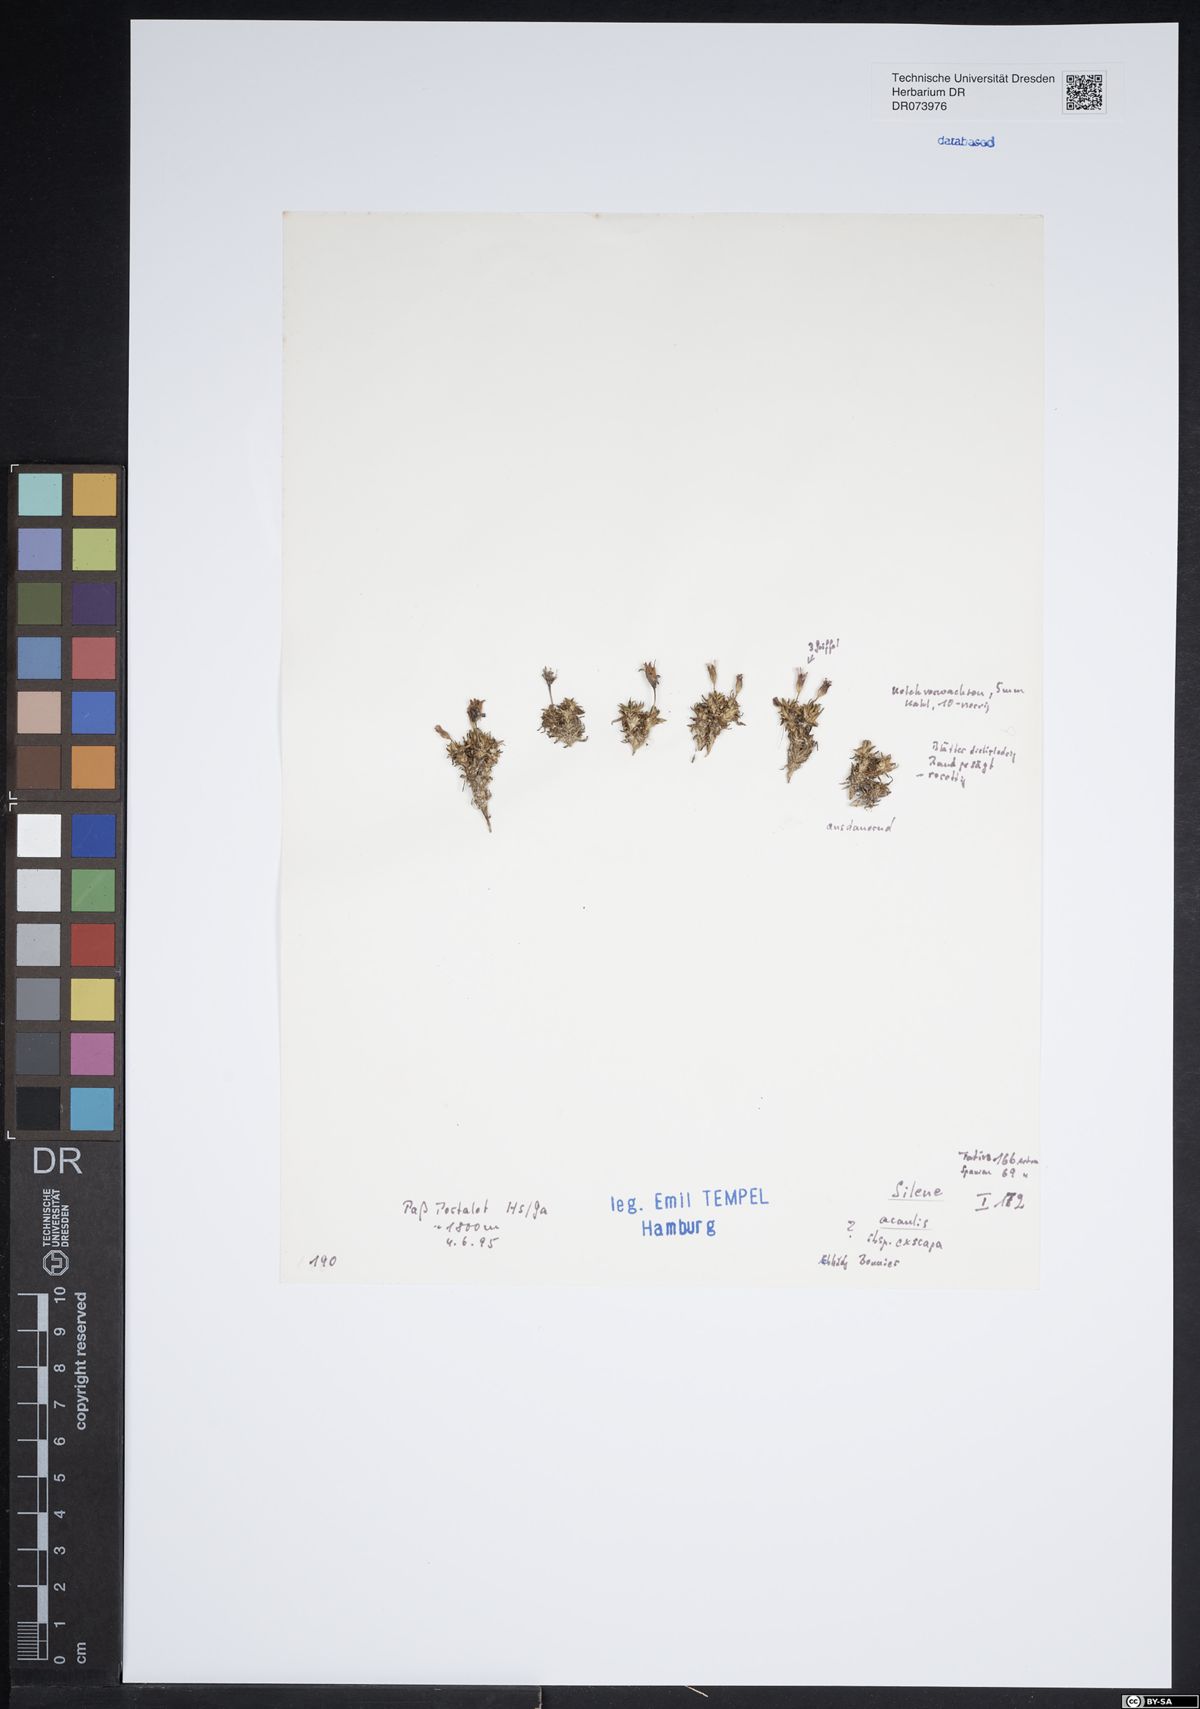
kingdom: Plantae
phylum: Tracheophyta
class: Magnoliopsida
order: Caryophyllales
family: Caryophyllaceae
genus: Silene
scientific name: Silene acaulis
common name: Moss campion
